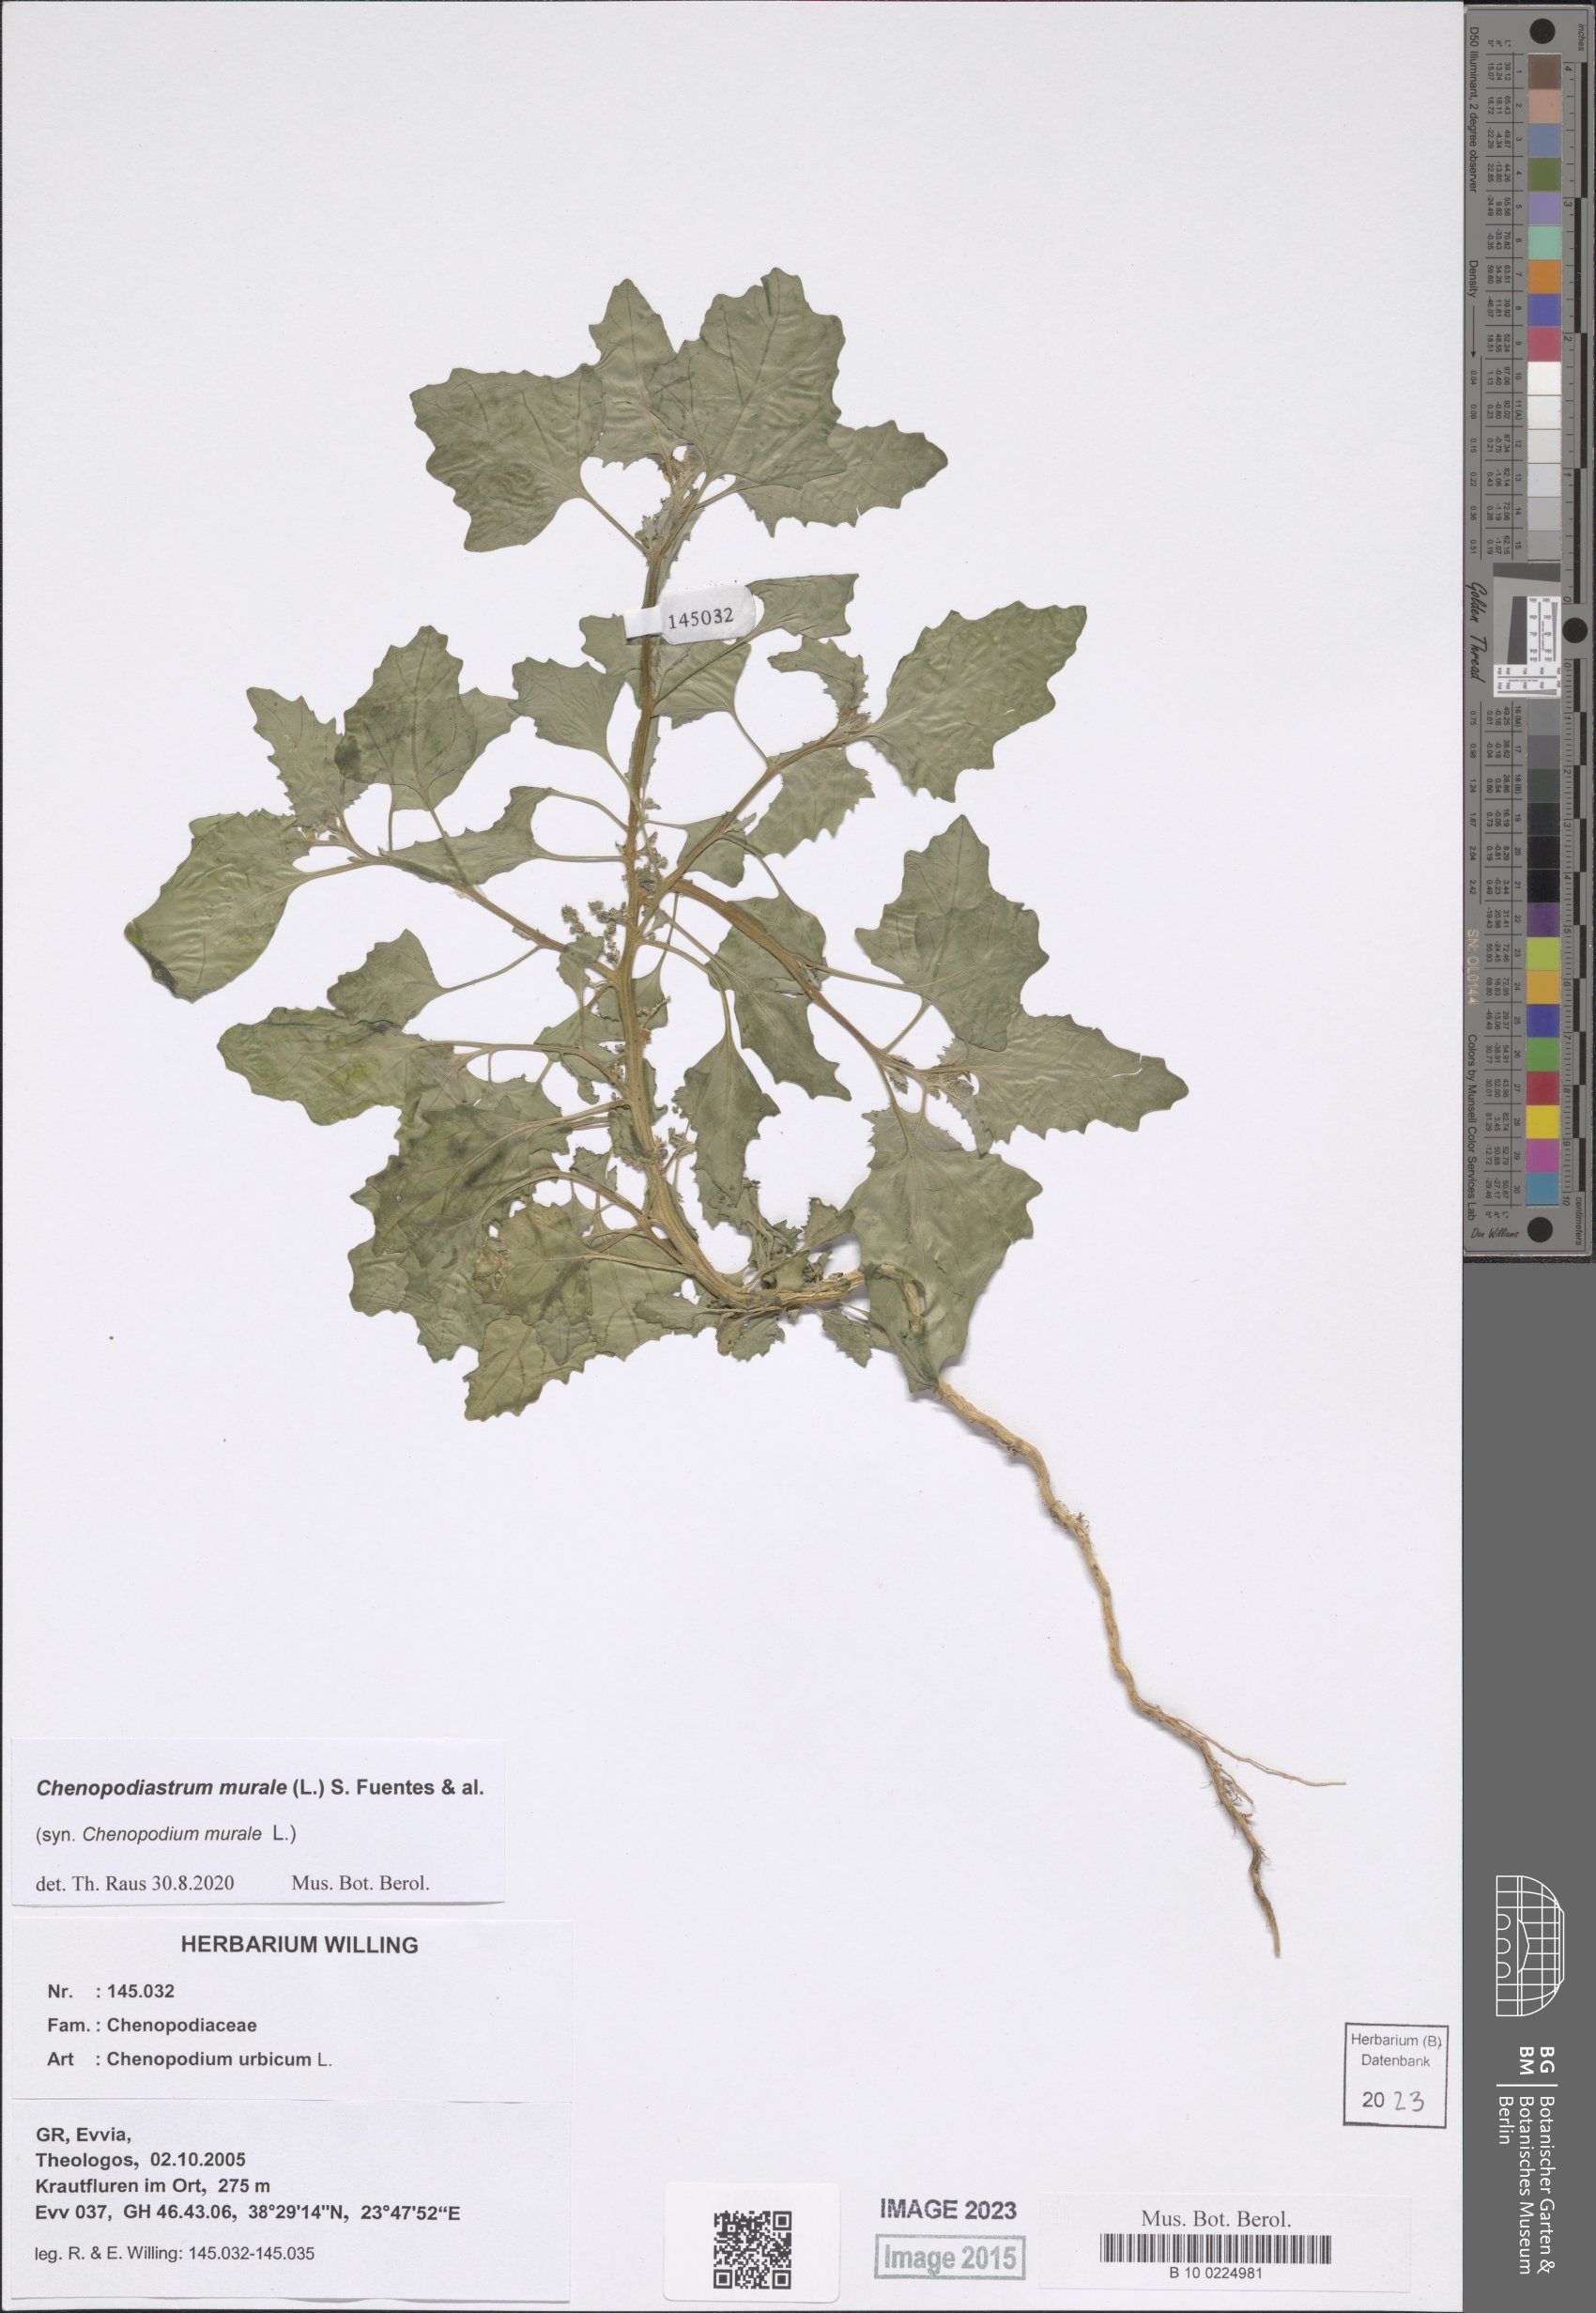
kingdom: Plantae
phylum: Tracheophyta
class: Magnoliopsida
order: Caryophyllales
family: Amaranthaceae
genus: Chenopodiastrum
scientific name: Chenopodiastrum murale
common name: Sowbane
